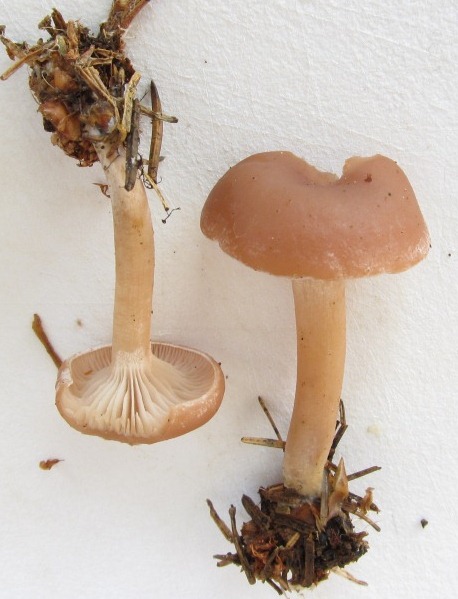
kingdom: Fungi
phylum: Basidiomycota
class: Agaricomycetes
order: Agaricales
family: Tricholomataceae
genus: Clitocybe
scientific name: Clitocybe diatreta
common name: kødfarvet tragthat
